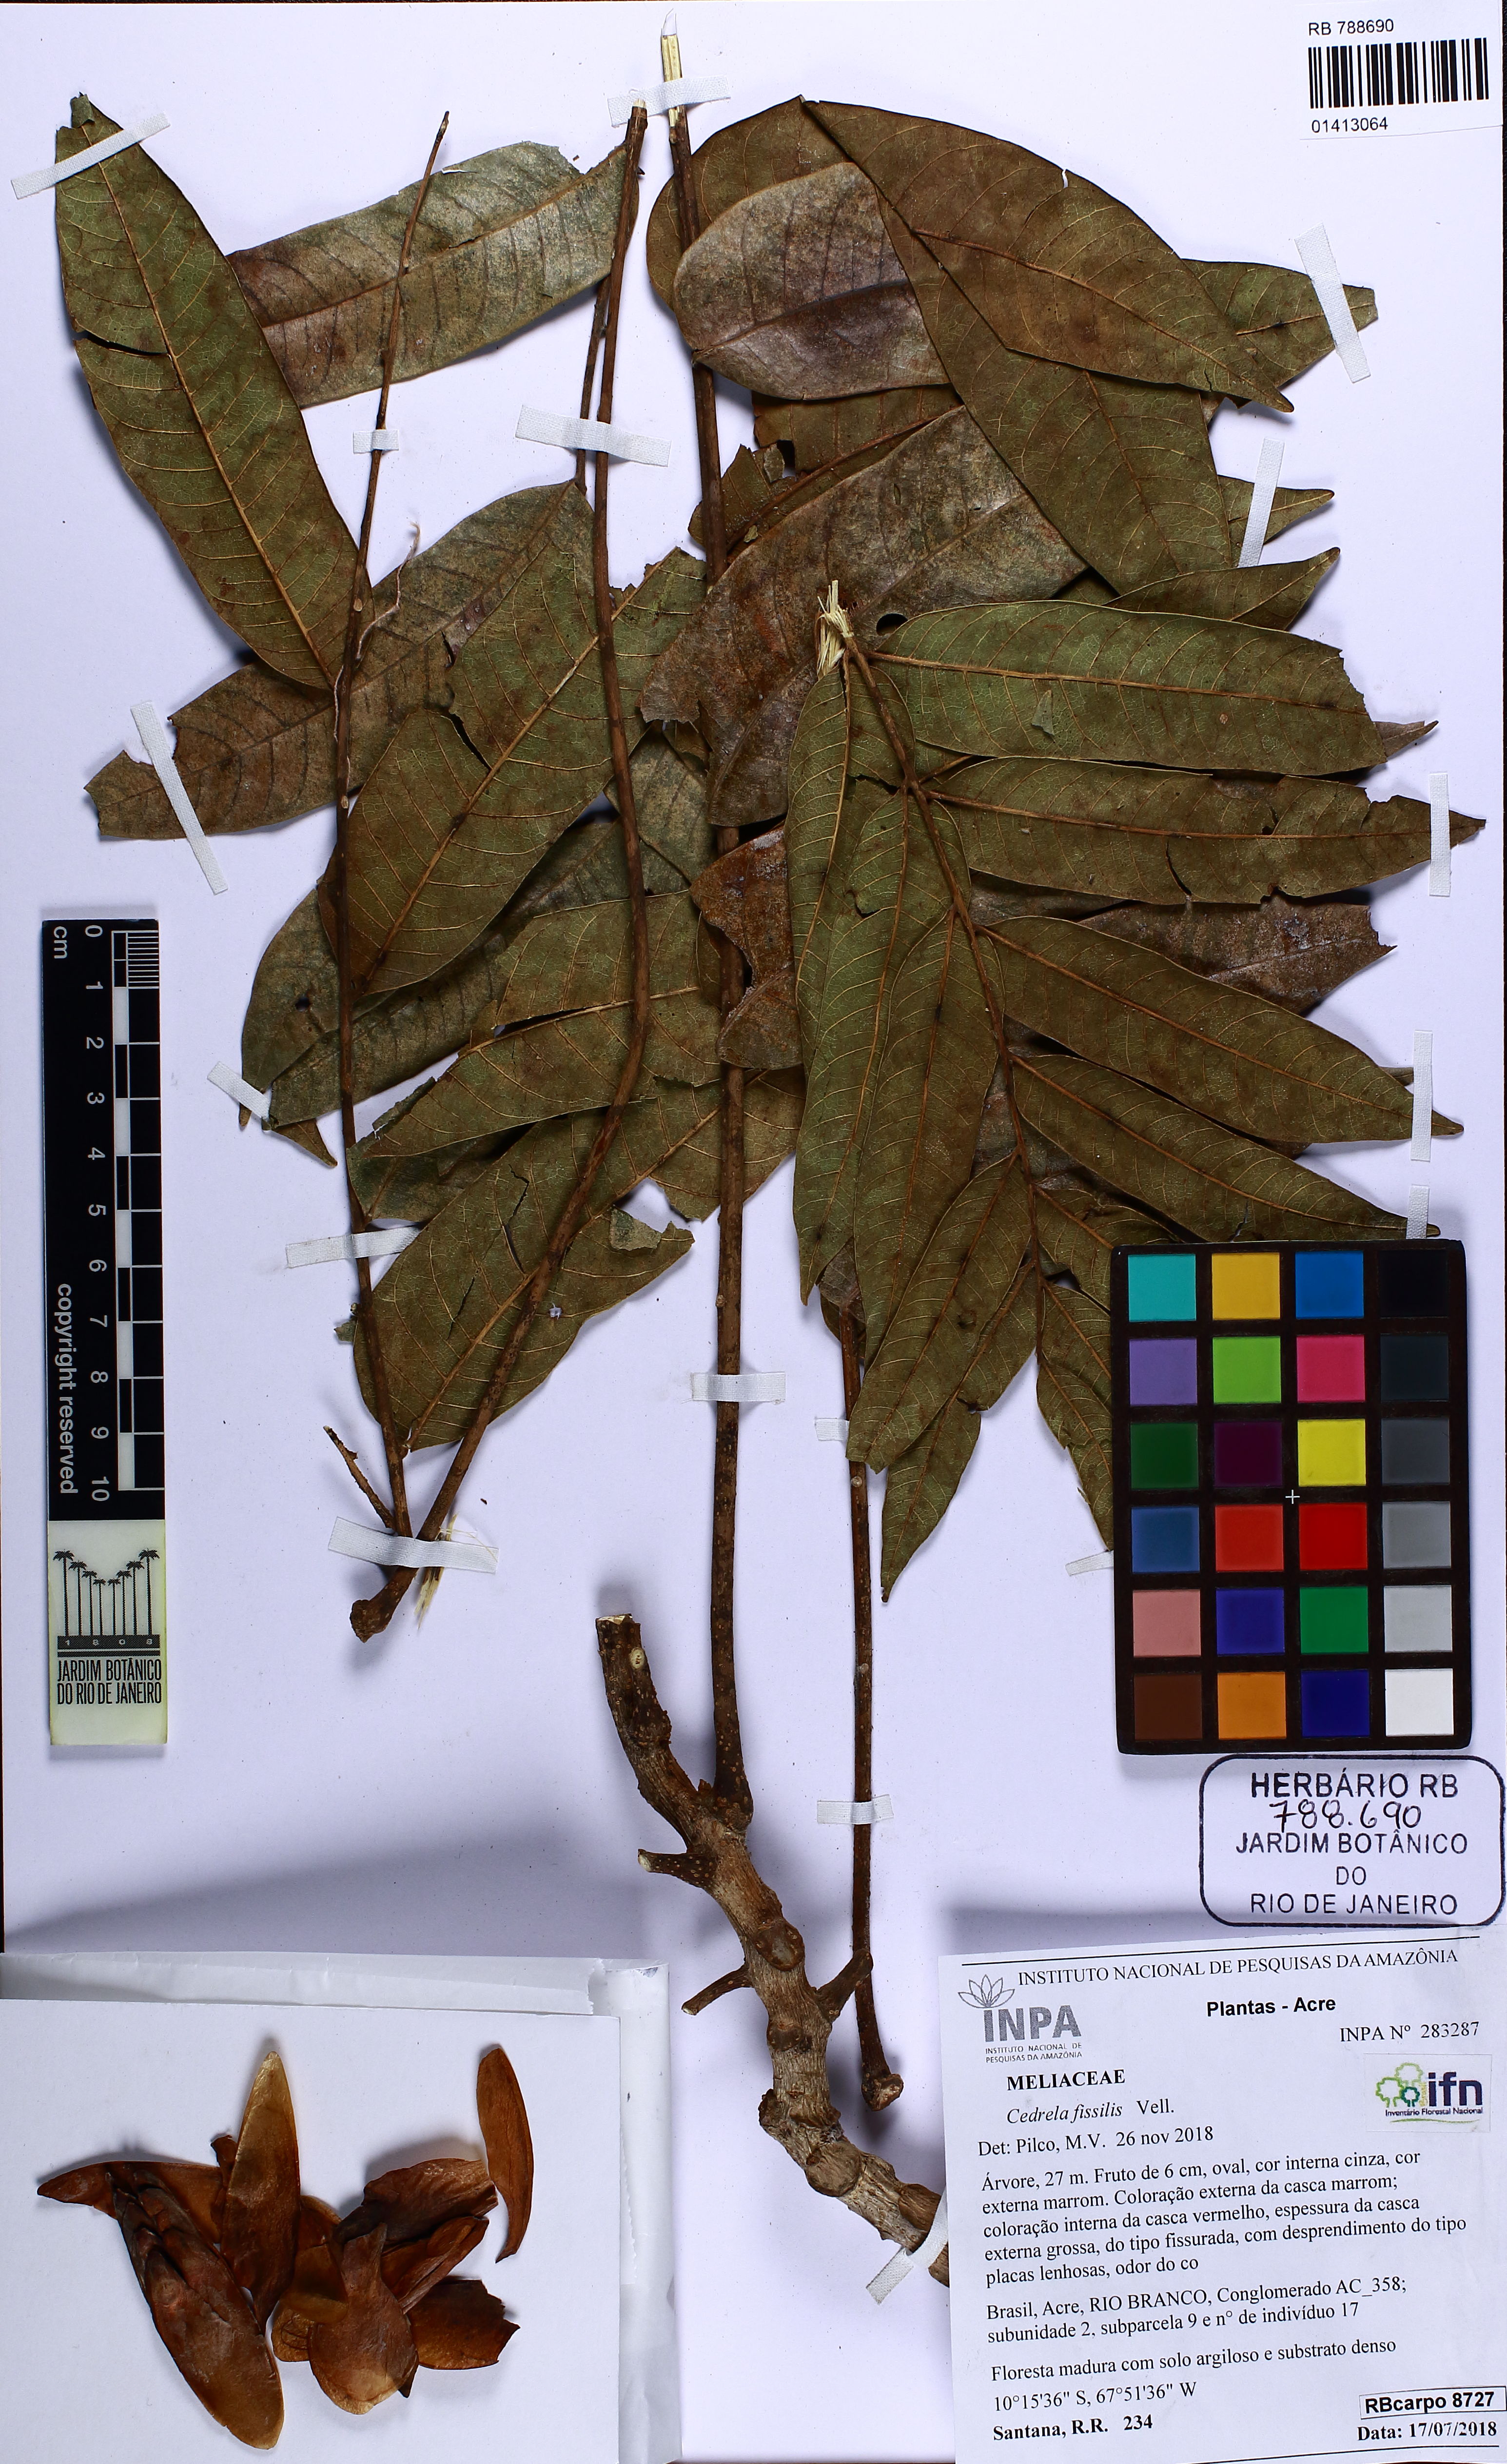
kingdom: Plantae
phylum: Tracheophyta
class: Magnoliopsida
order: Sapindales
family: Meliaceae
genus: Cedrela
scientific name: Cedrela fissilis
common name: Argentine cedar
